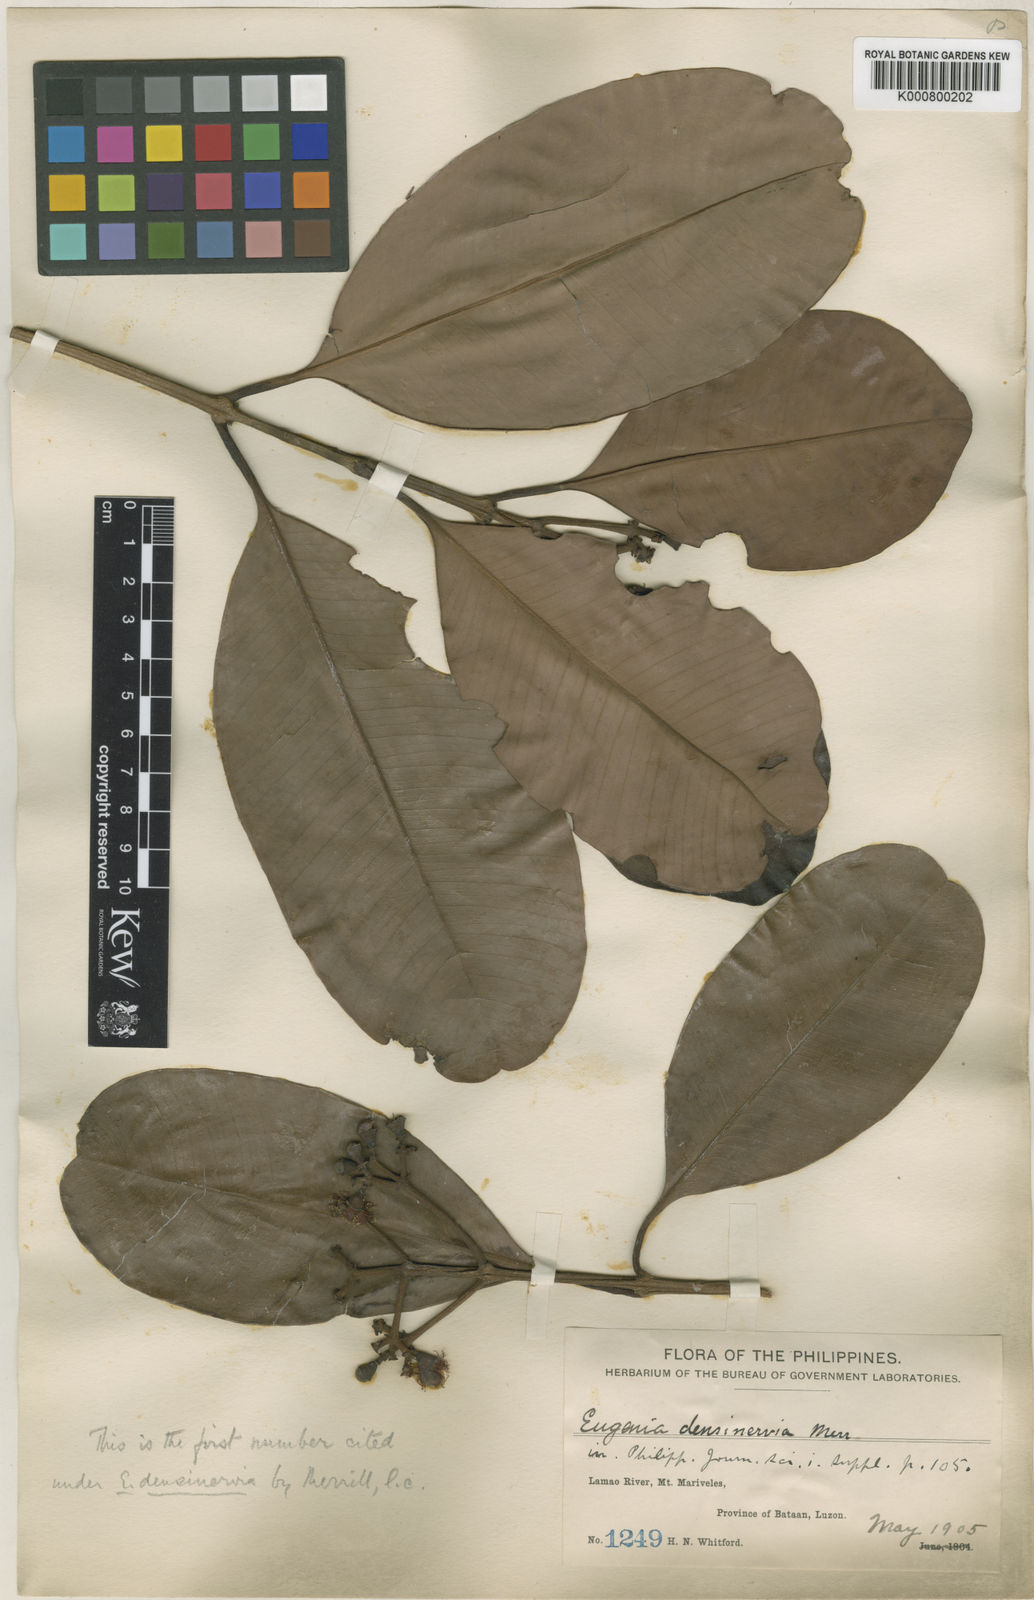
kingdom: Plantae
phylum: Tracheophyta
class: Magnoliopsida
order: Myrtales
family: Myrtaceae
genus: Syzygium
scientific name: Syzygium densinervium
